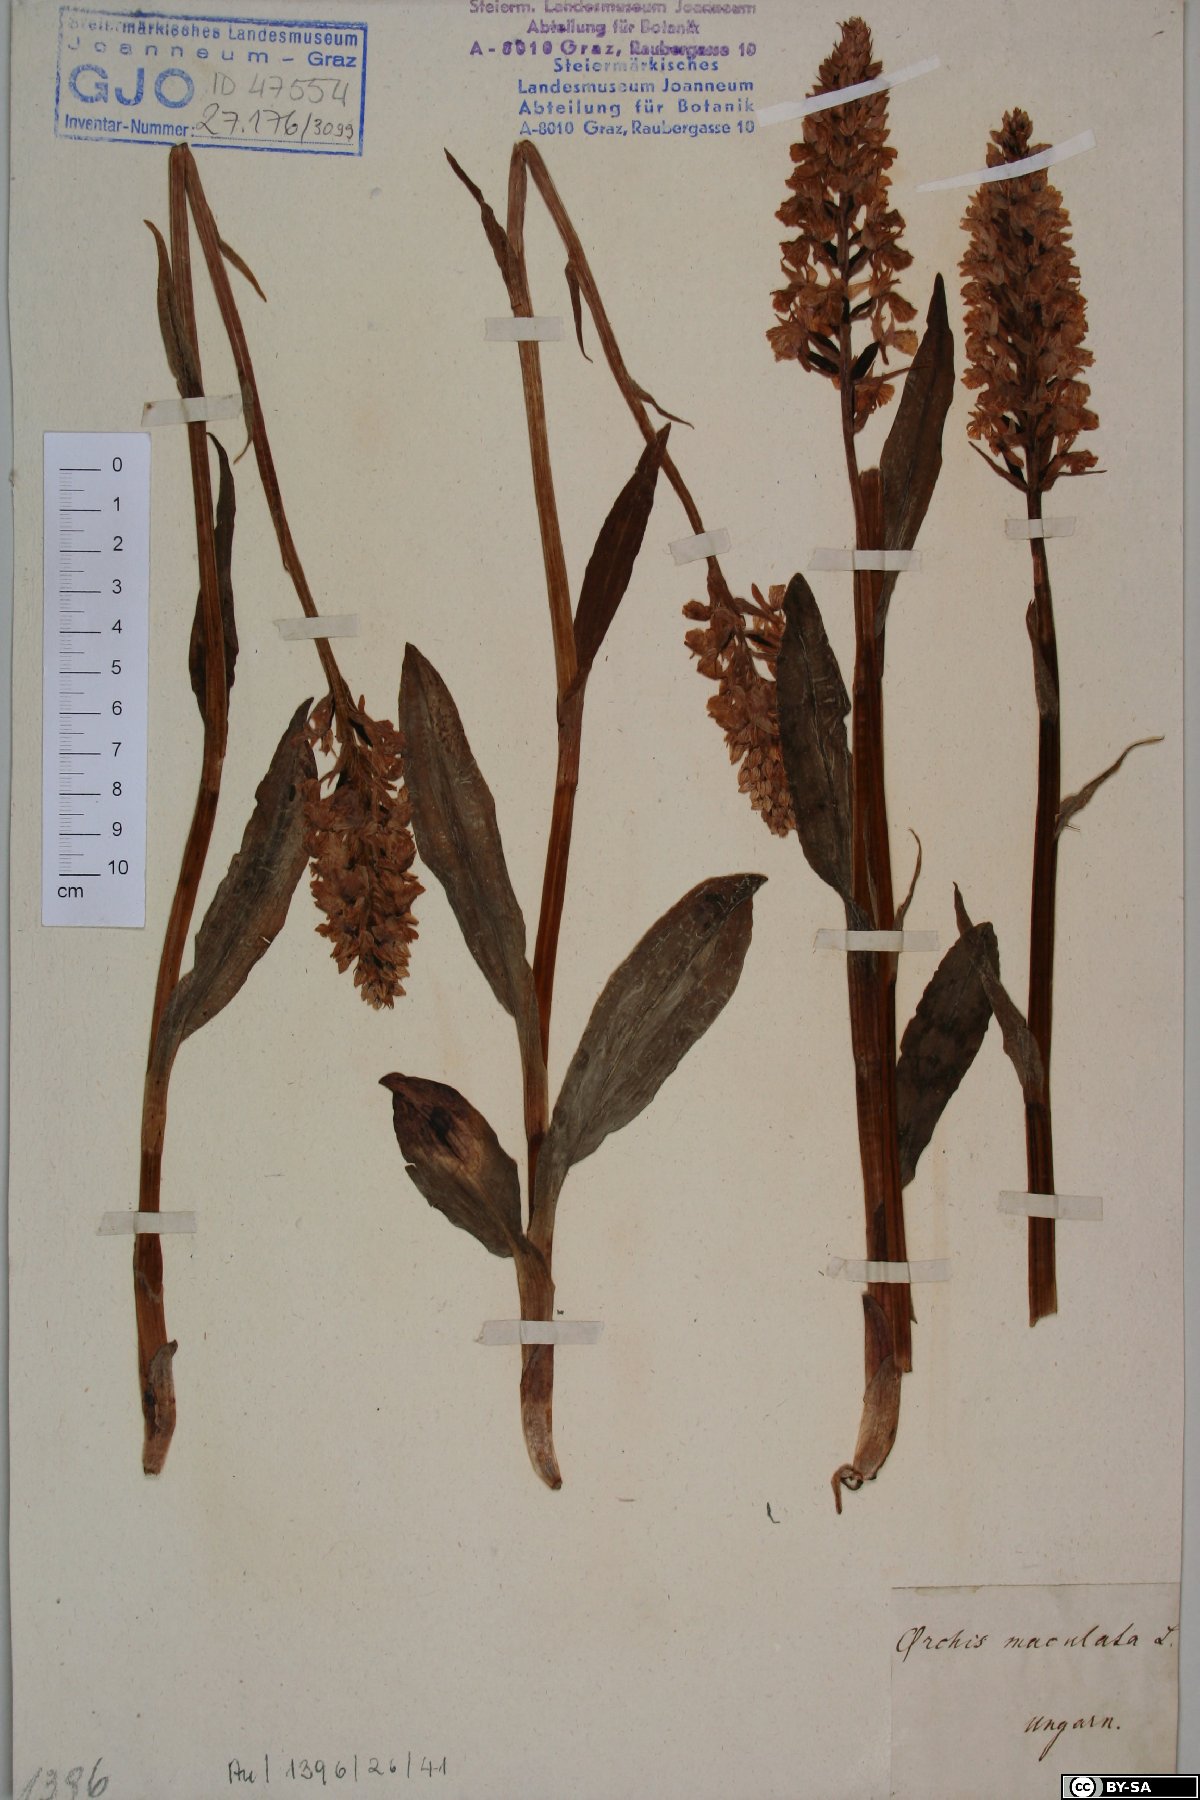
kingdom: Plantae
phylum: Tracheophyta
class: Liliopsida
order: Asparagales
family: Orchidaceae
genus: Dactylorhiza
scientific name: Dactylorhiza maculata
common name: Heath spotted-orchid
